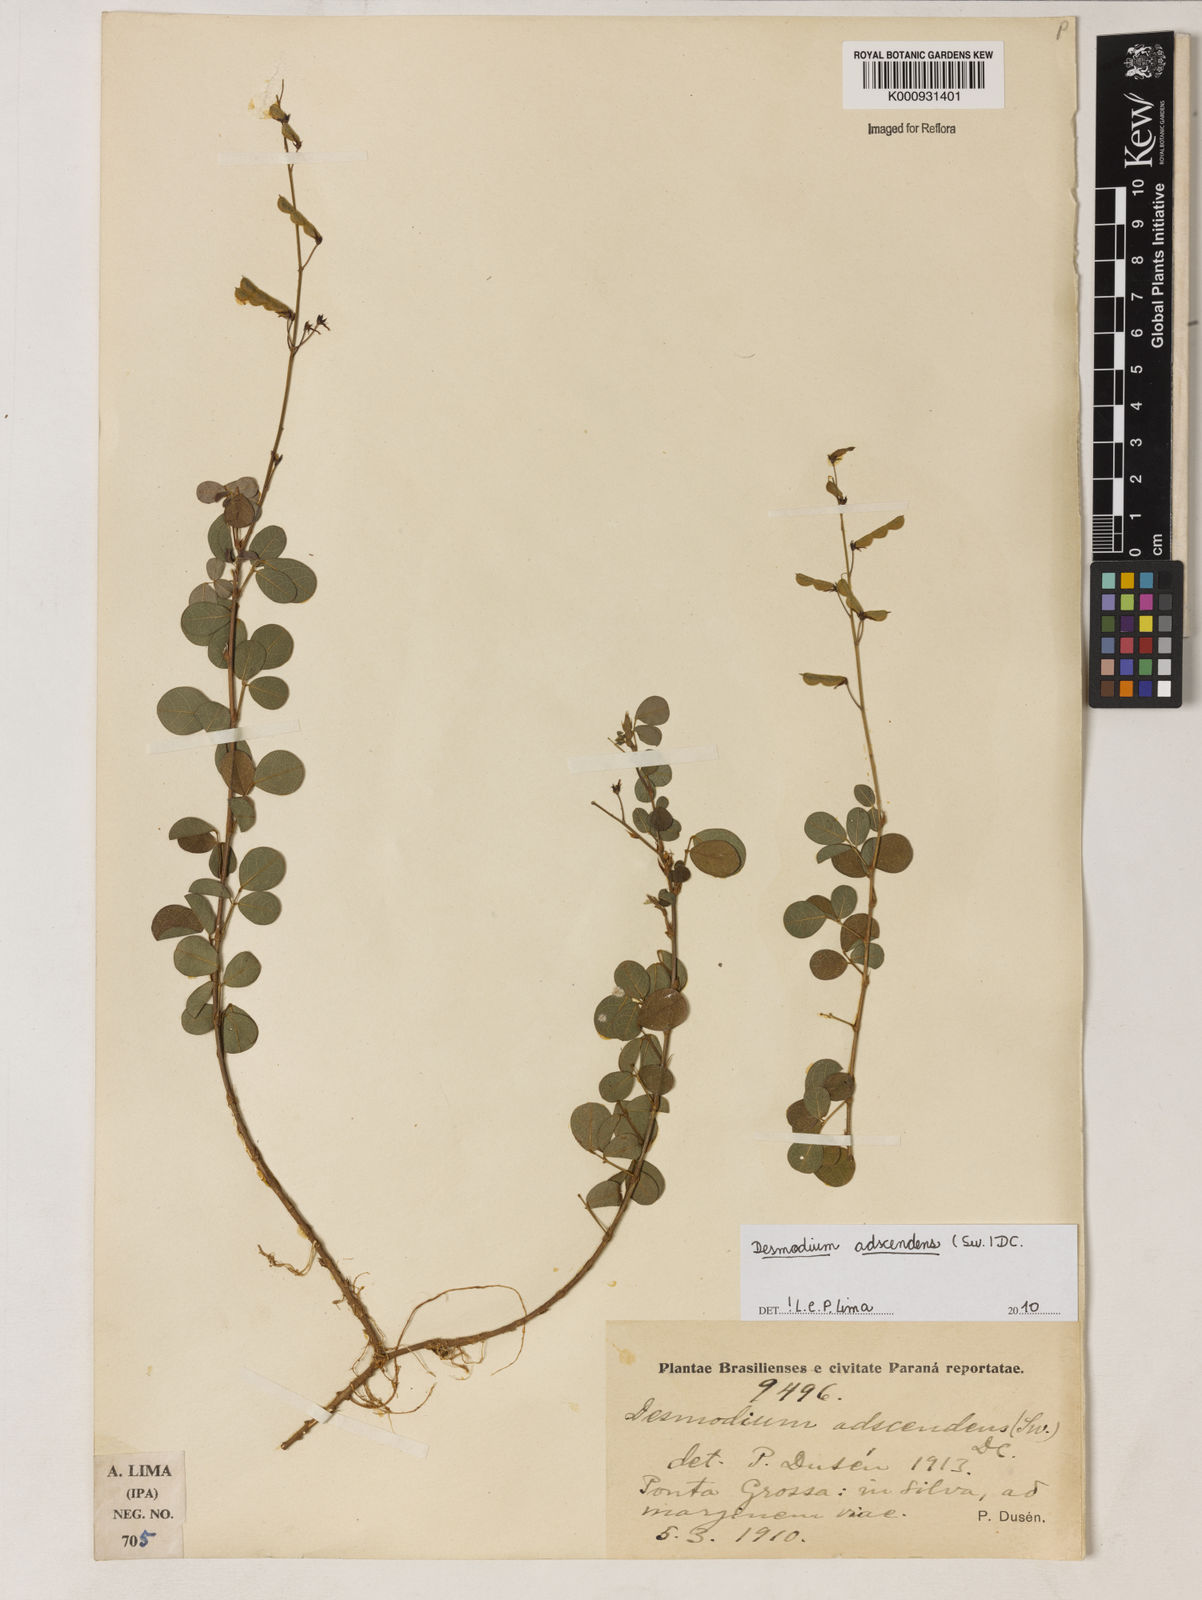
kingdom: Plantae
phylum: Tracheophyta
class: Magnoliopsida
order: Fabales
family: Fabaceae
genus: Grona
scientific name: Grona adscendens
